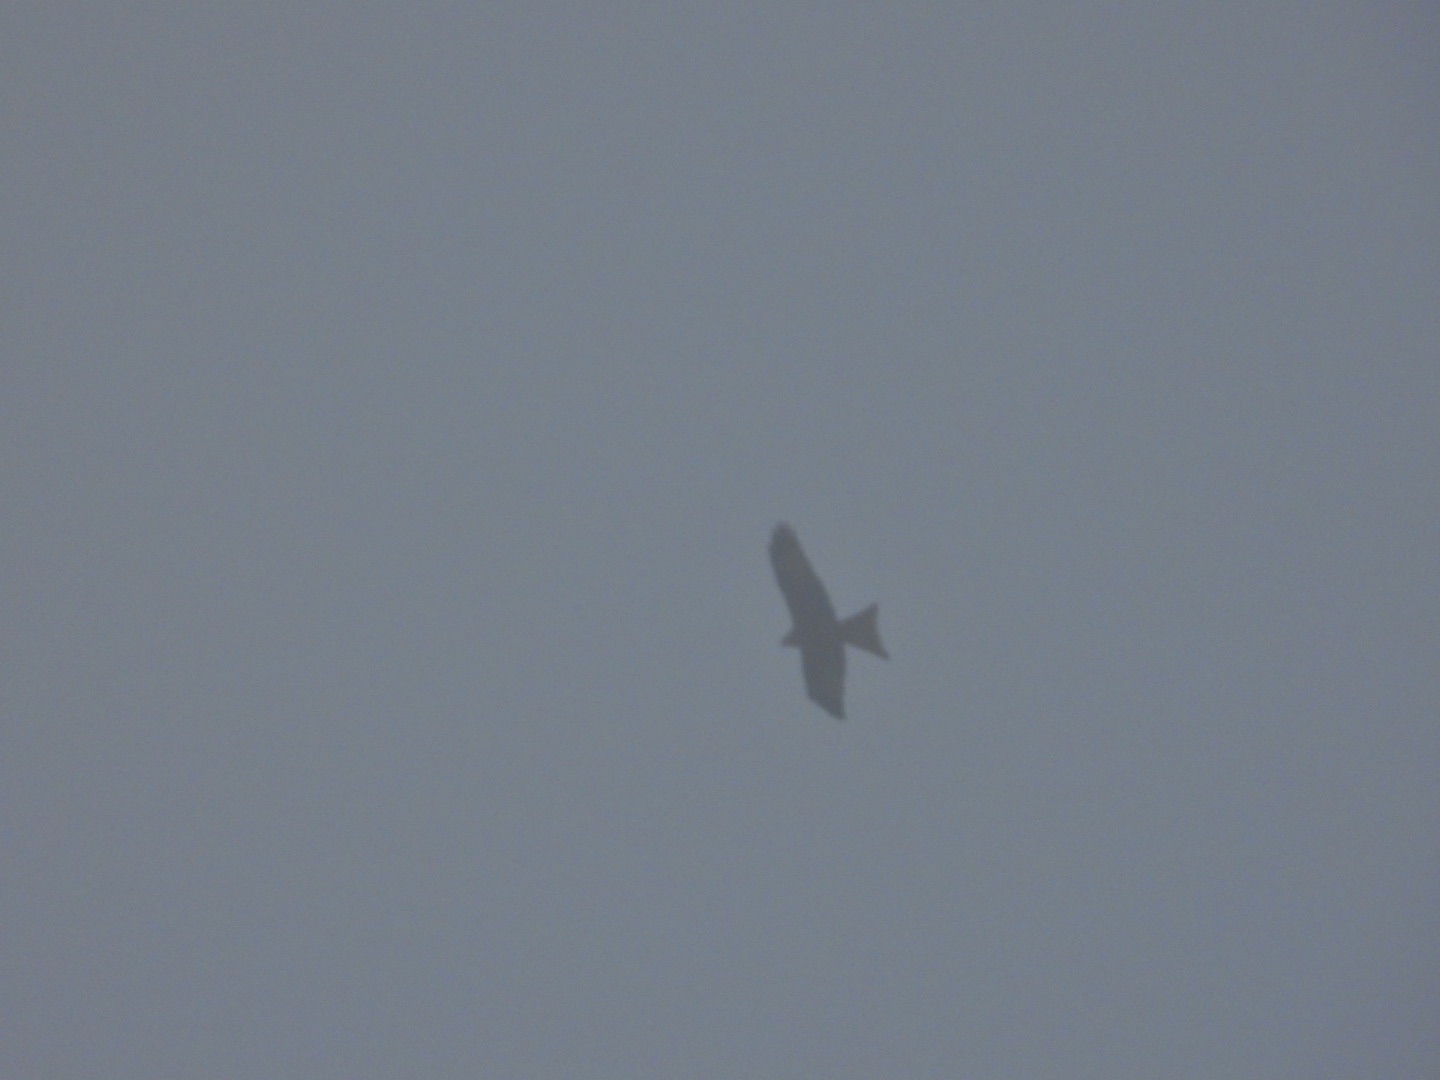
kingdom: Animalia
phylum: Chordata
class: Aves
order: Accipitriformes
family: Accipitridae
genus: Milvus
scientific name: Milvus milvus
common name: Rød glente
